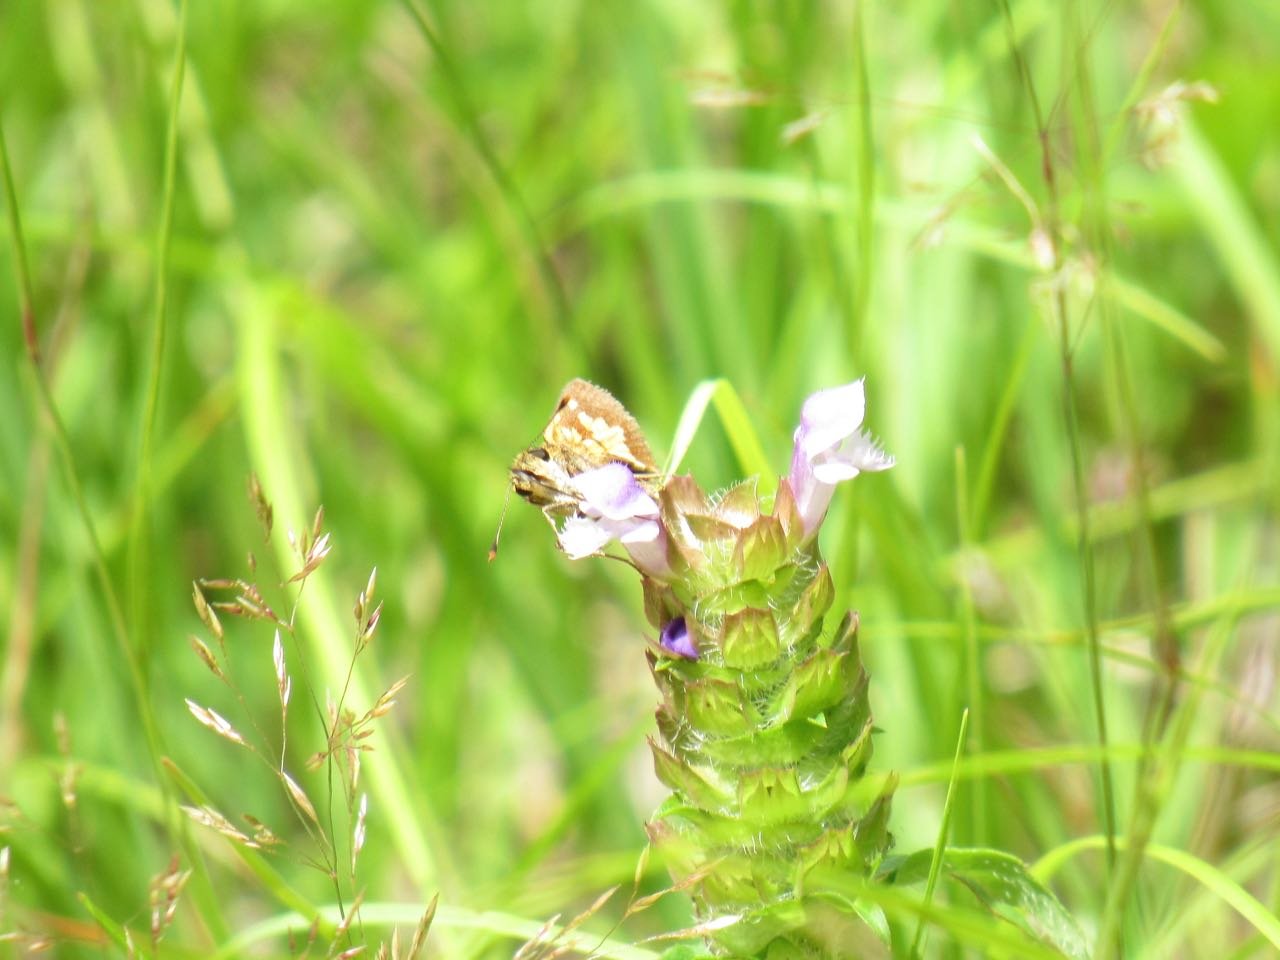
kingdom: Animalia
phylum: Arthropoda
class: Insecta
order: Lepidoptera
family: Hesperiidae
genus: Polites
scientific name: Polites coras
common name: Peck's Skipper
